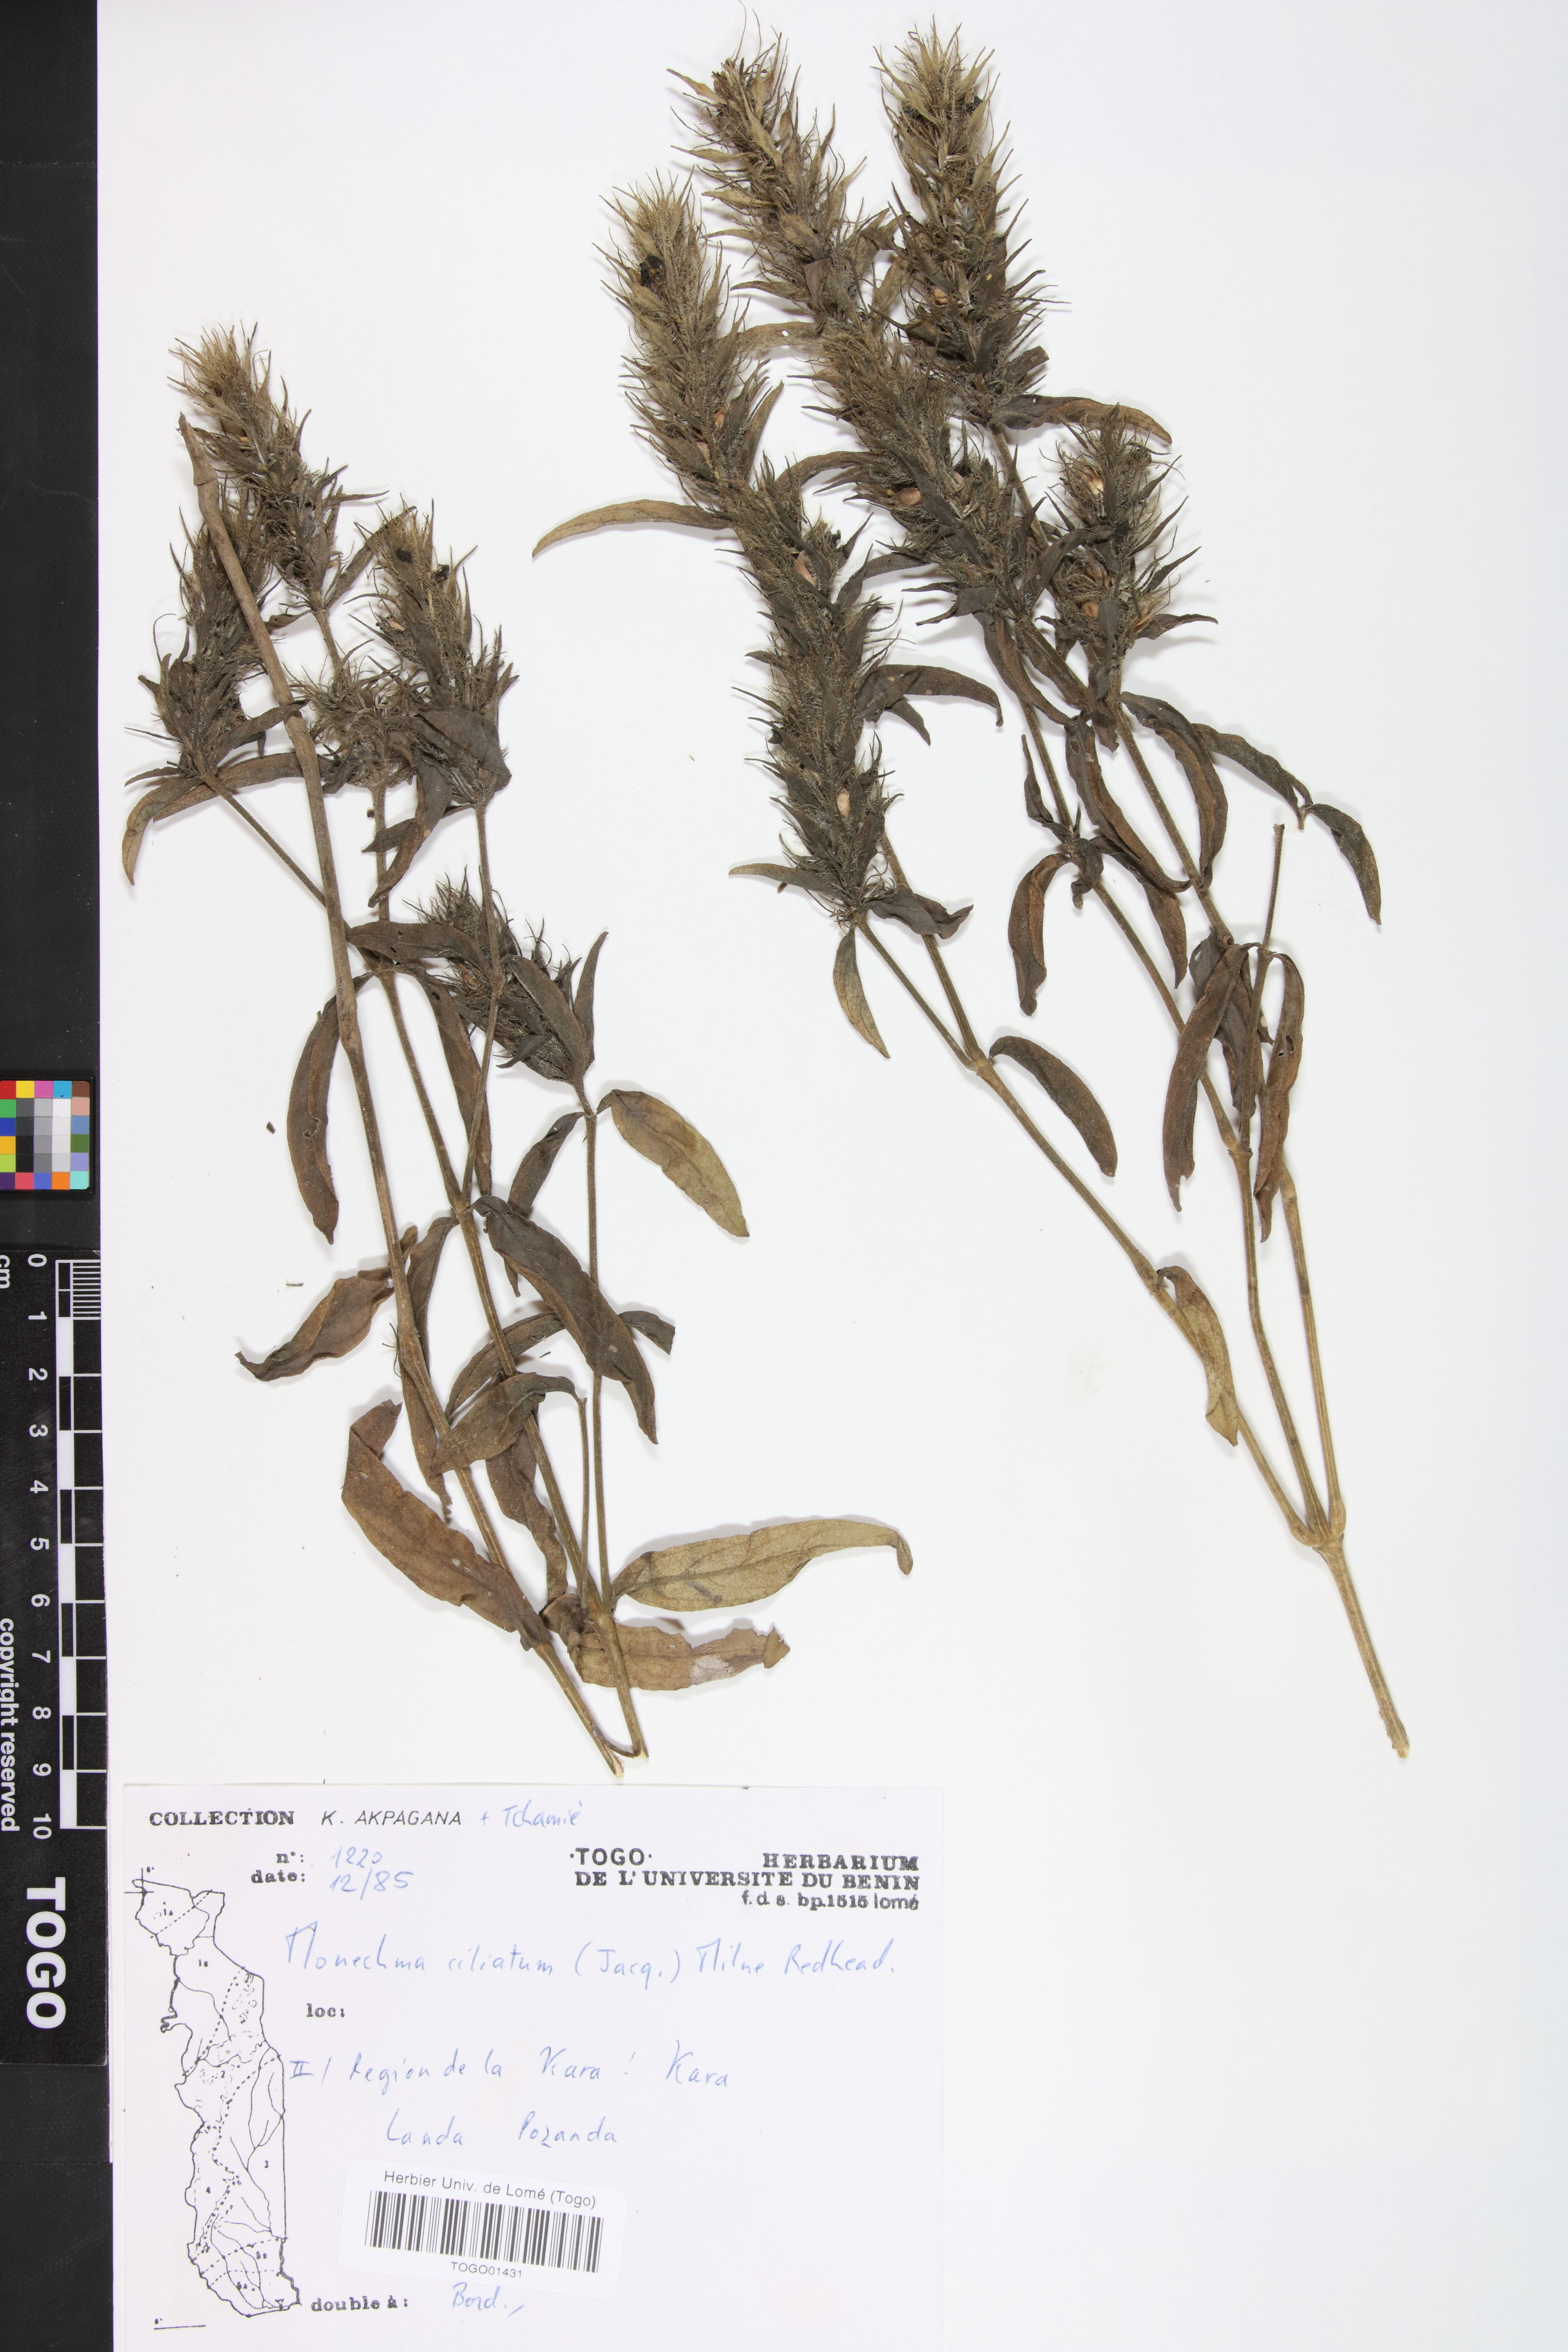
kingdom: Plantae
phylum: Tracheophyta
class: Magnoliopsida
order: Lamiales
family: Acanthaceae
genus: Pogonospermum
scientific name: Pogonospermum ciliare
